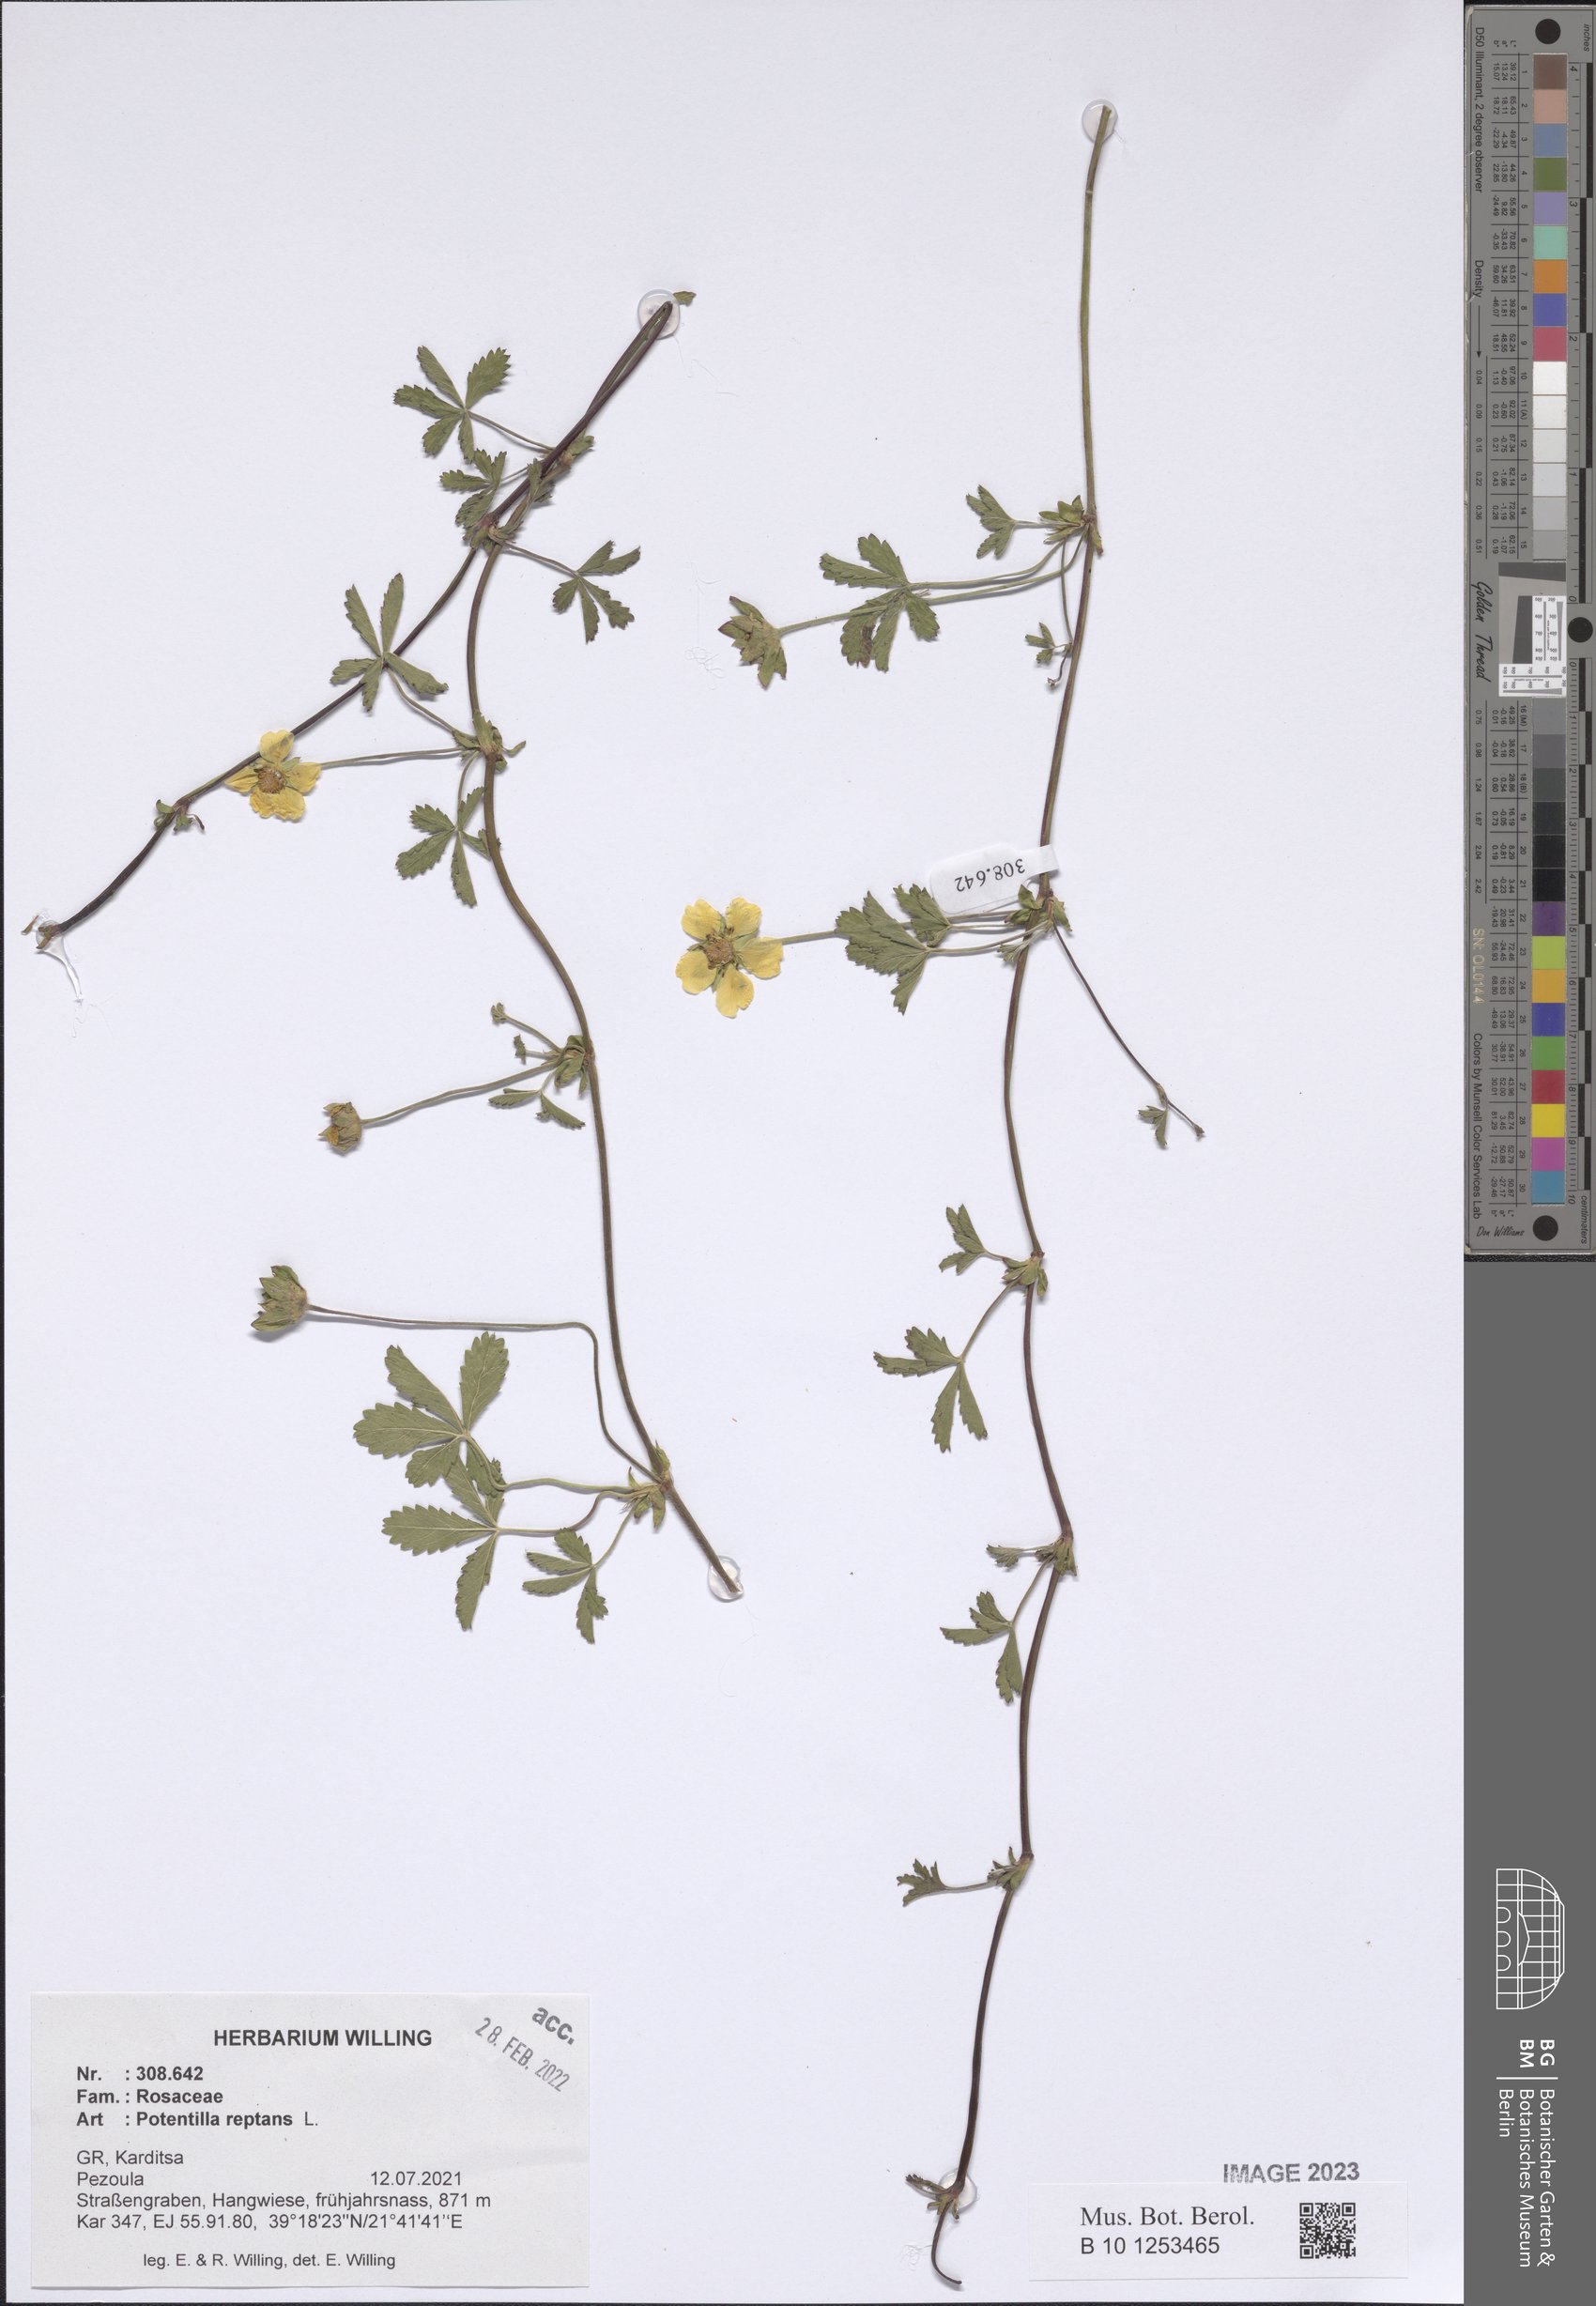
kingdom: Plantae
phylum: Tracheophyta
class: Magnoliopsida
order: Rosales
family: Rosaceae
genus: Potentilla
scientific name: Potentilla reptans
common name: Creeping cinquefoil
